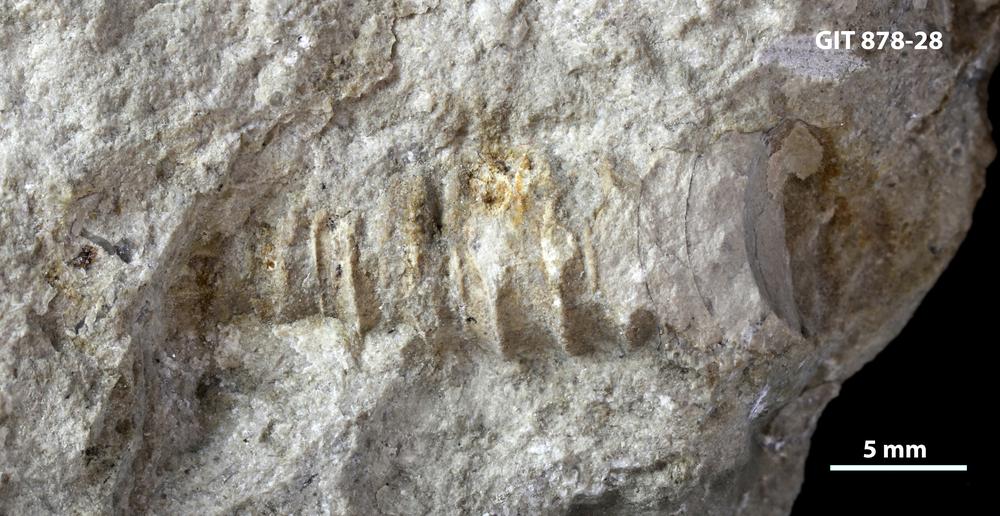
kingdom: Animalia
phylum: Mollusca
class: Cephalopoda
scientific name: Cephalopoda
